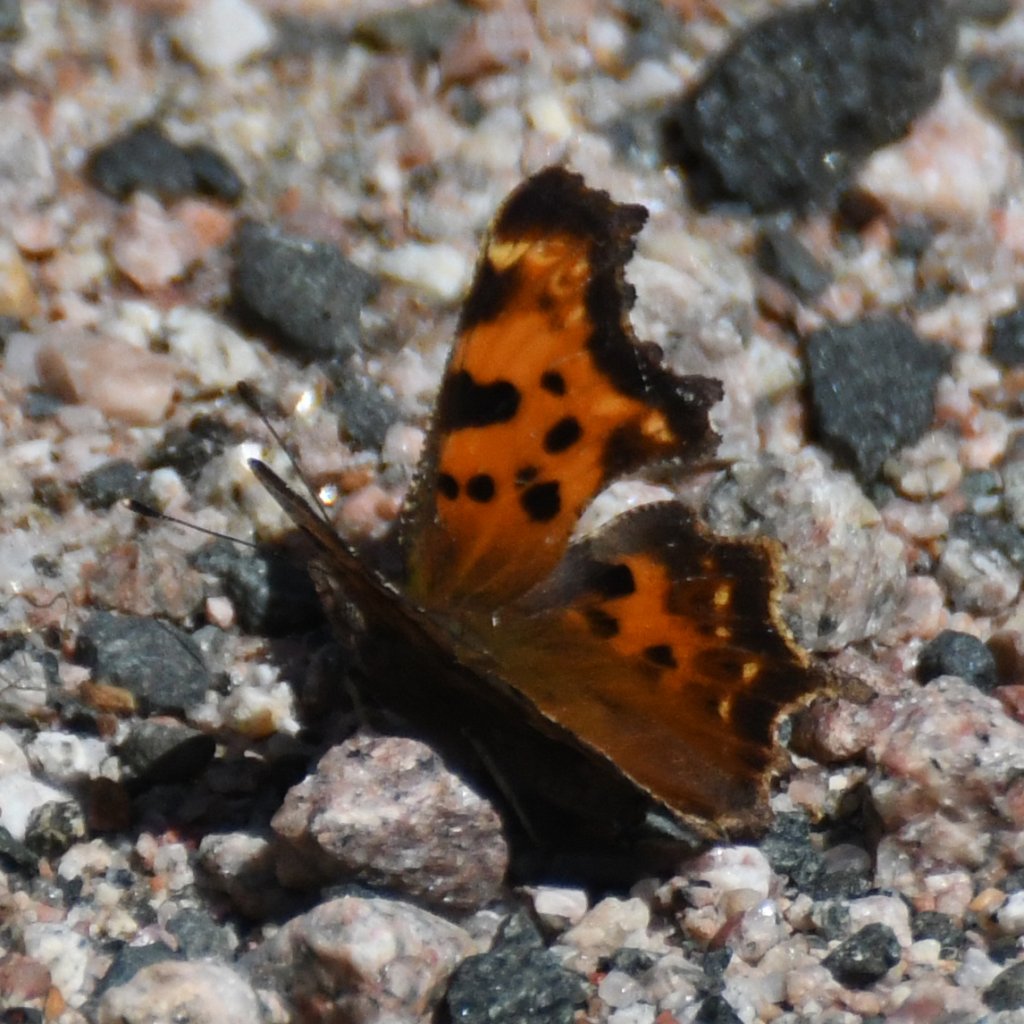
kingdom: Animalia
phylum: Arthropoda
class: Insecta
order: Lepidoptera
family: Nymphalidae
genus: Polygonia
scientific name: Polygonia faunus
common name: Green Comma
